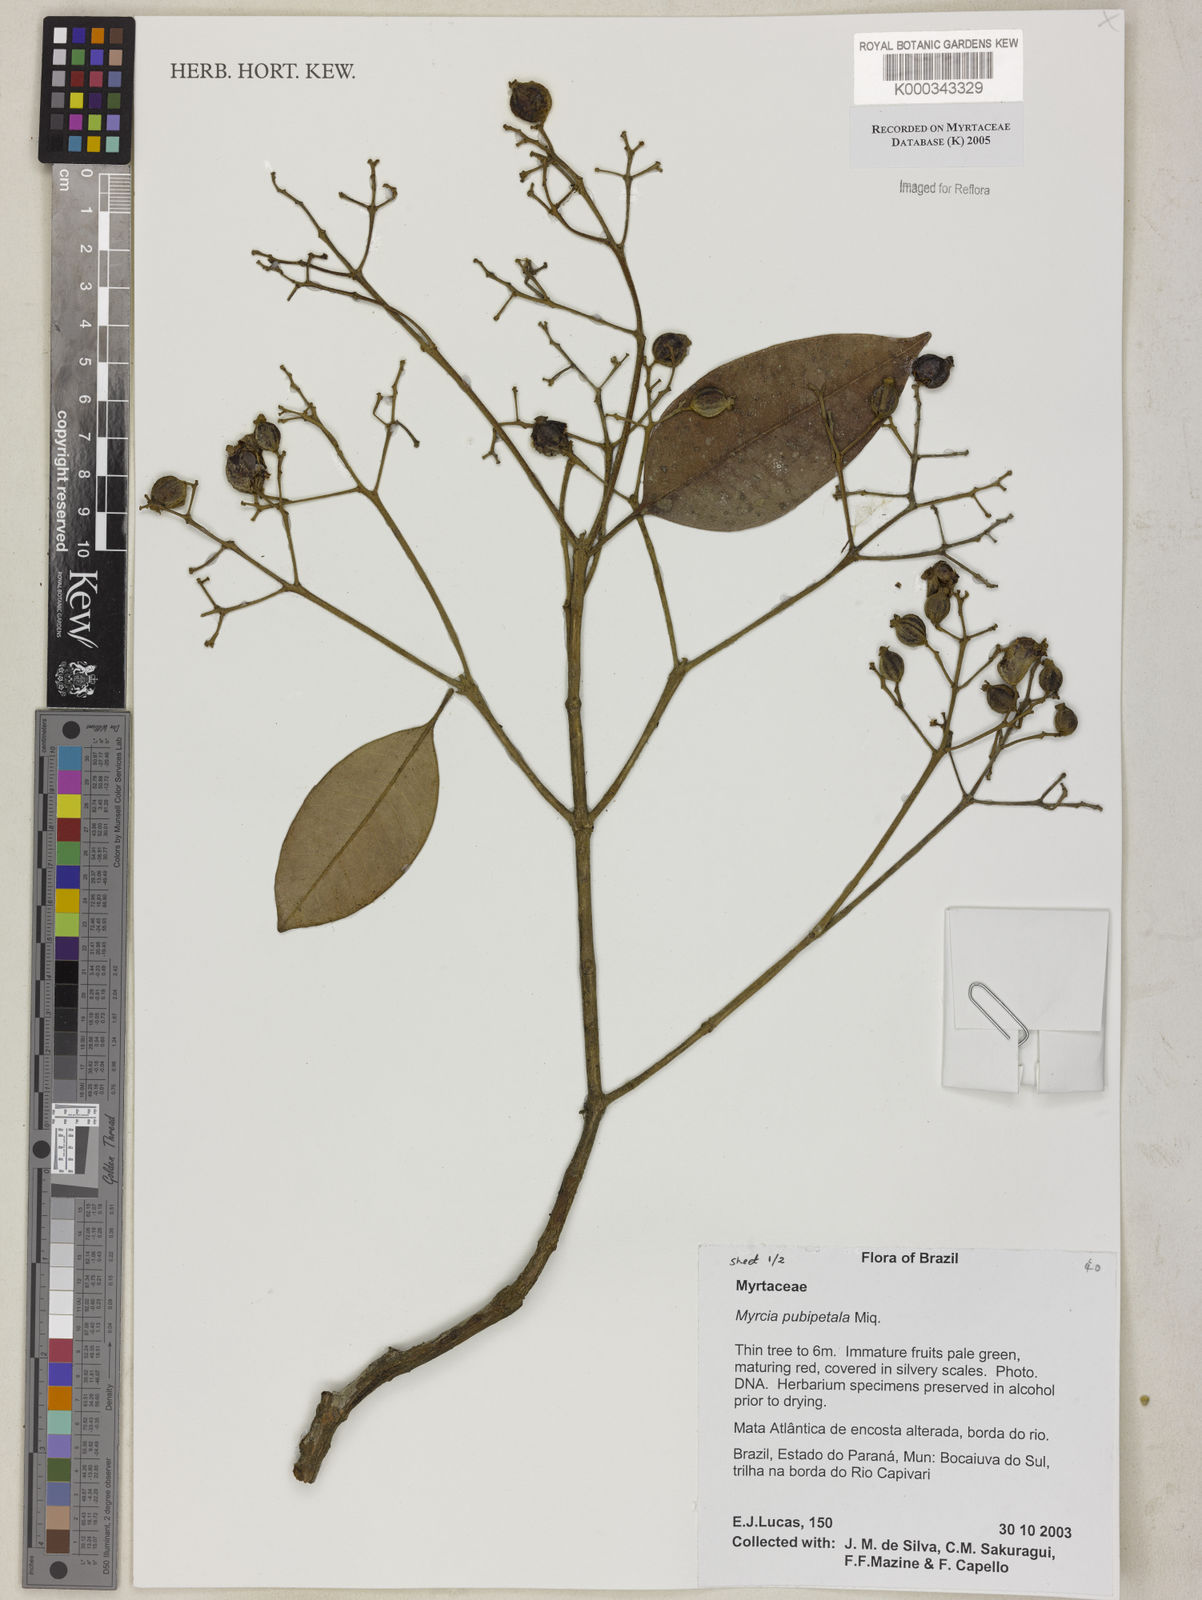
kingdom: Plantae
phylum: Tracheophyta
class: Magnoliopsida
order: Myrtales
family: Myrtaceae
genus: Myrcia
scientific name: Myrcia pubipetala
